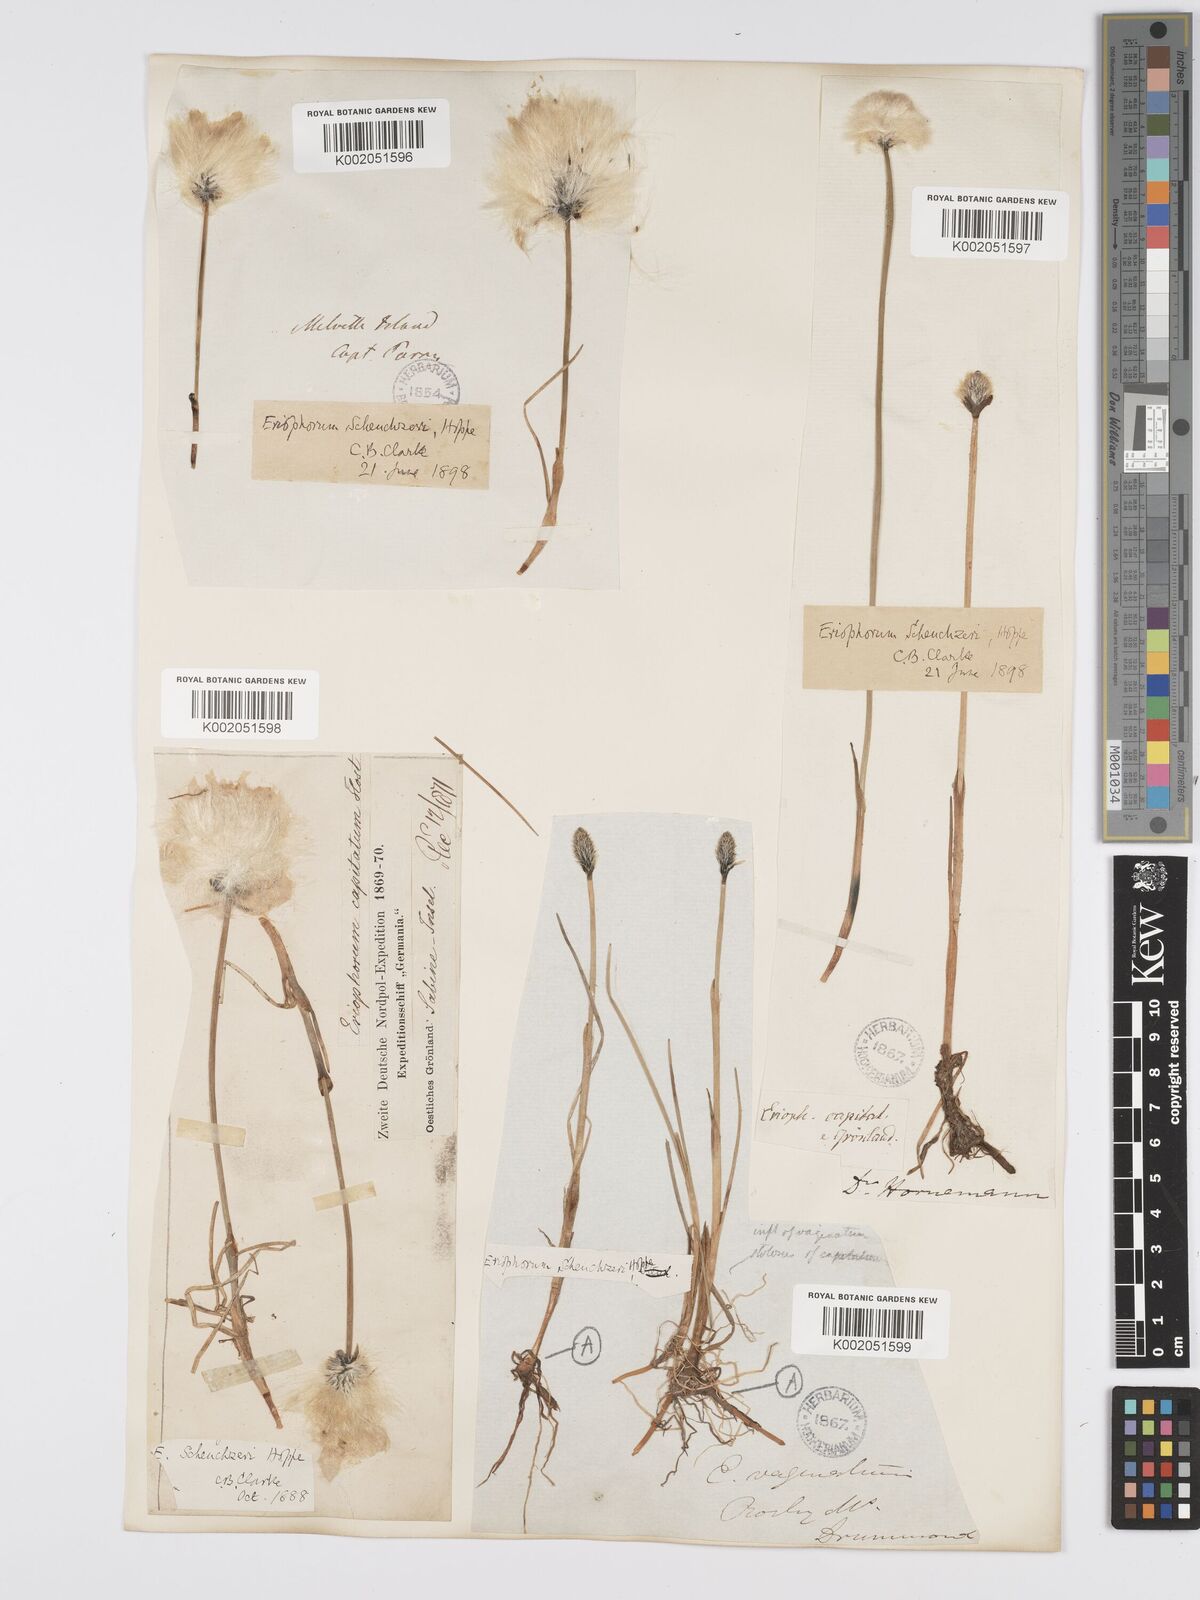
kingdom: Plantae
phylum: Tracheophyta
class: Liliopsida
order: Poales
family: Cyperaceae
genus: Eriophorum
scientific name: Eriophorum scheuchzeri
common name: Scheuchzer's cottongrass
